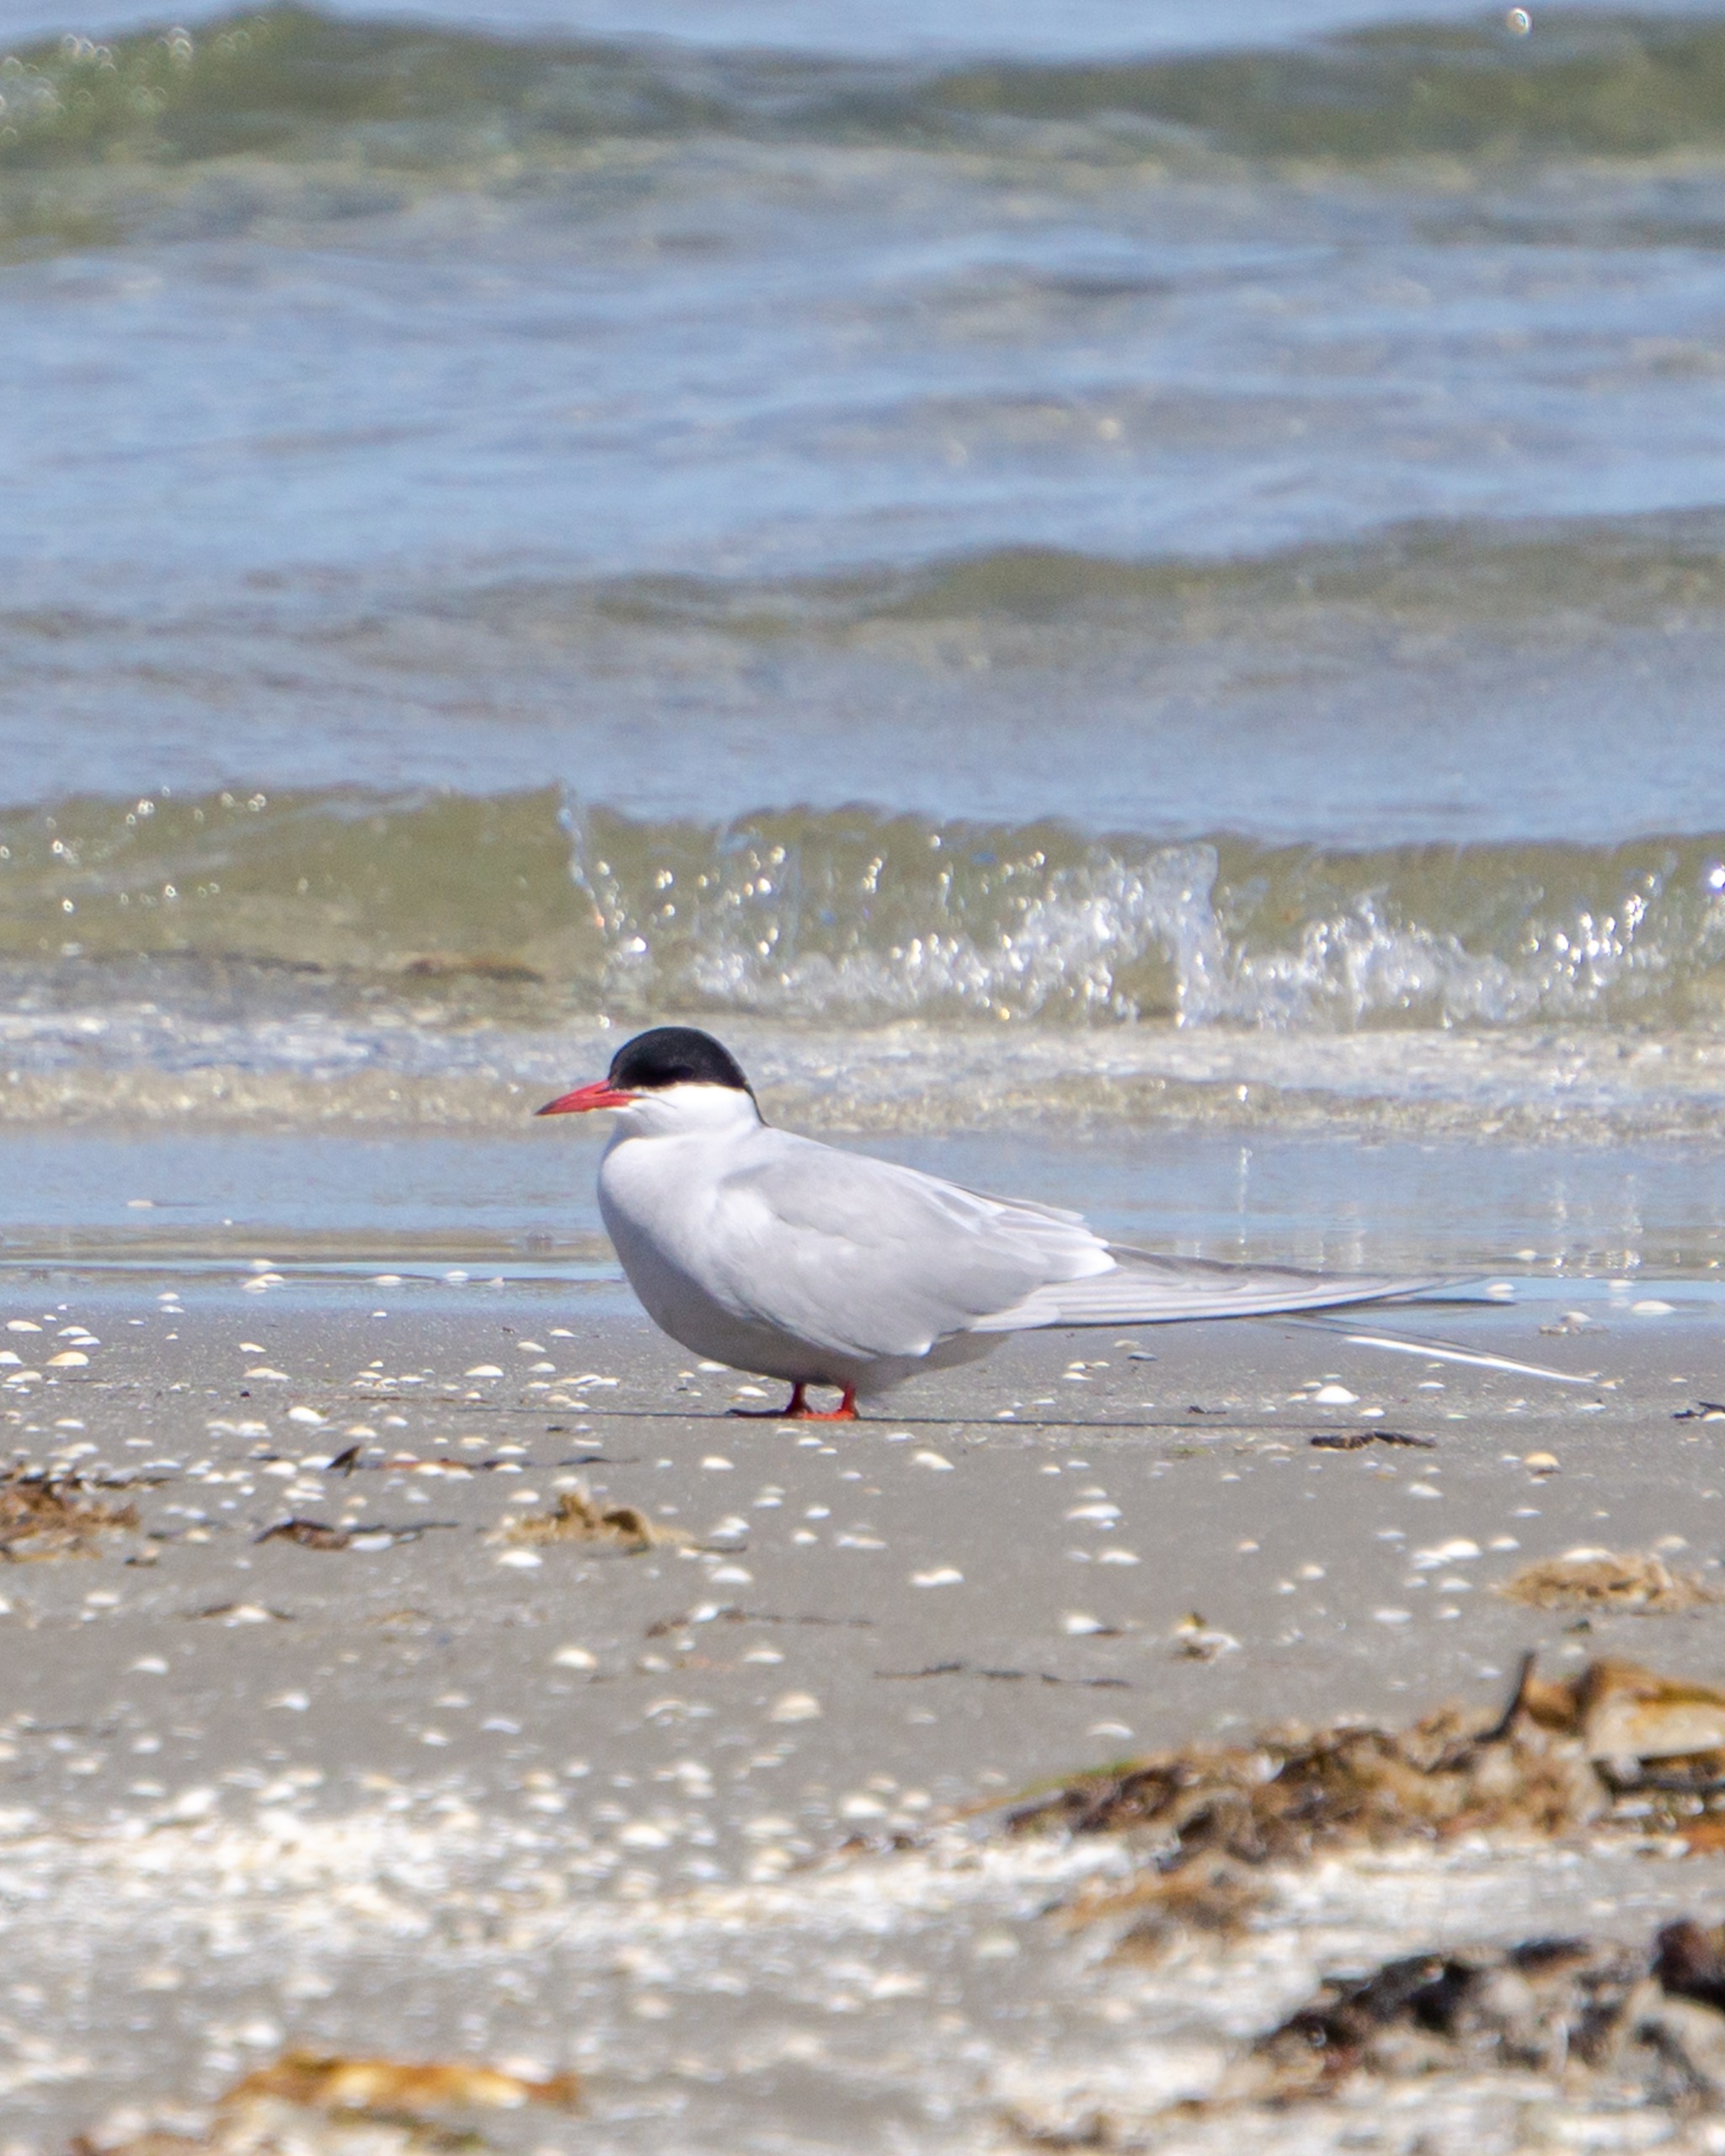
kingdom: Animalia
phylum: Chordata
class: Aves
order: Charadriiformes
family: Laridae
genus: Sterna
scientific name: Sterna paradisaea
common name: Havterne
